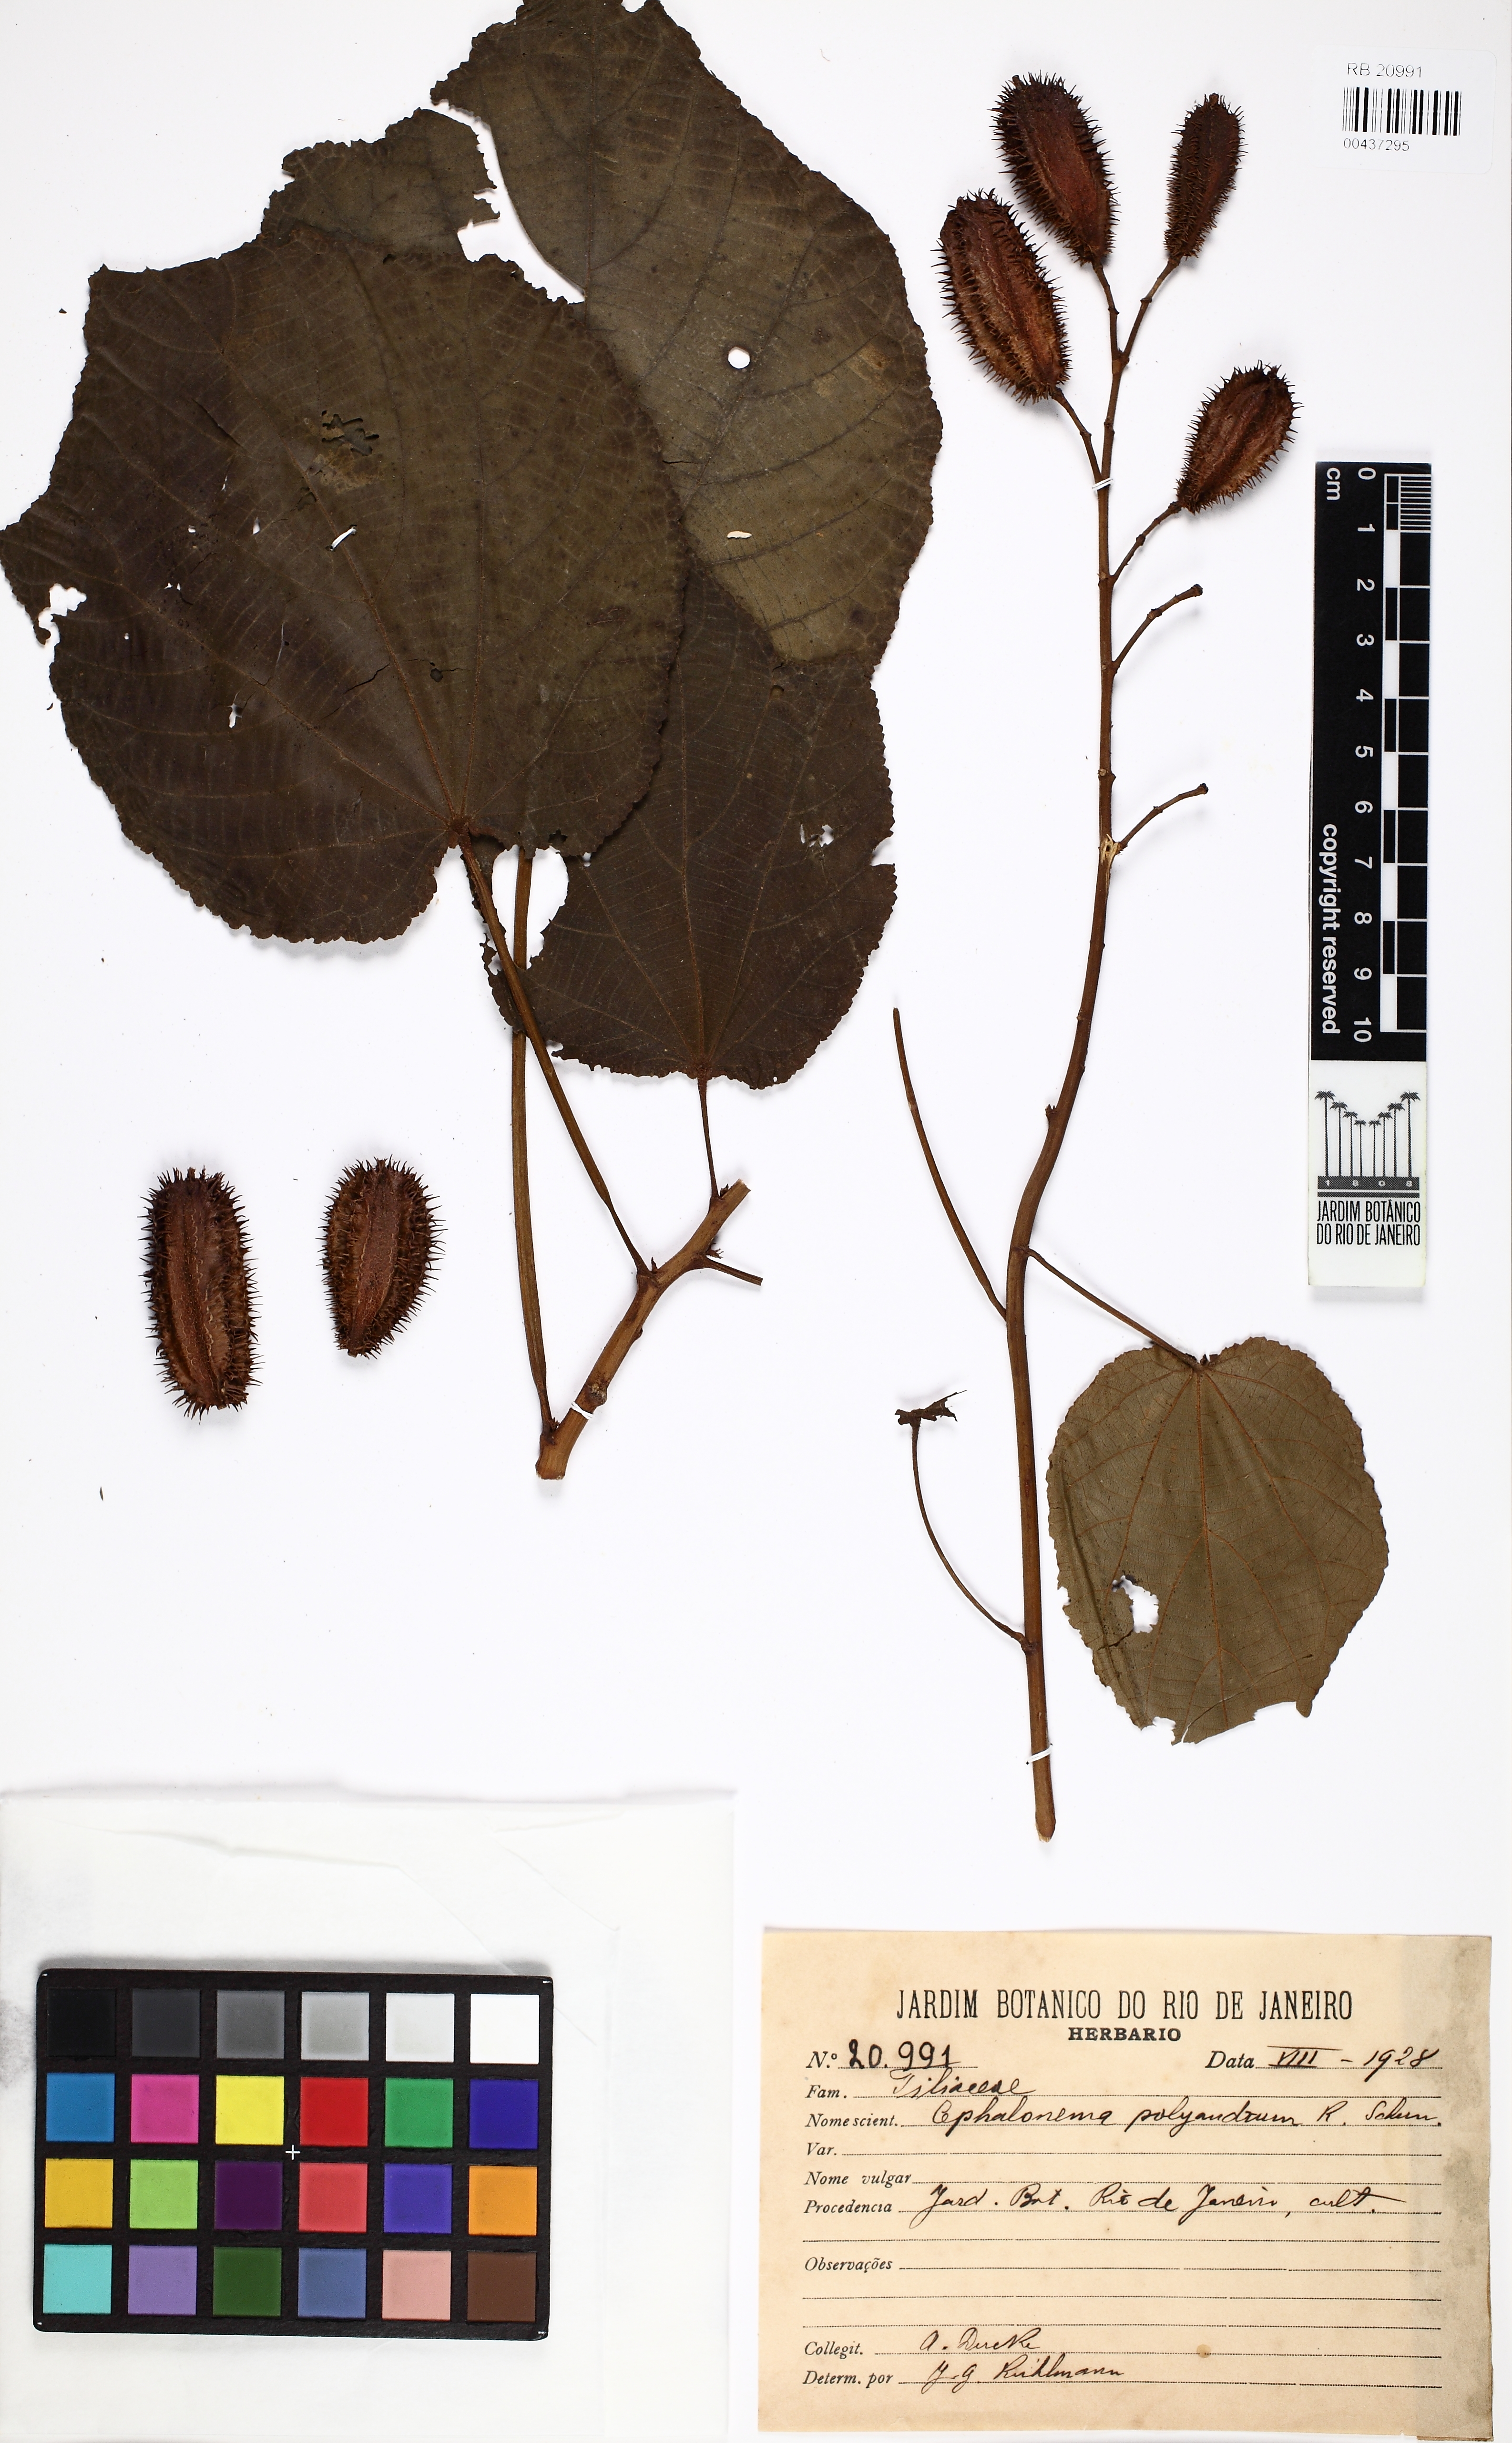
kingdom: Plantae
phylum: Tracheophyta
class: Magnoliopsida
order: Malvales
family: Tiliaceae
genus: Cephalonema
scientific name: Cephalonema polyandrum
